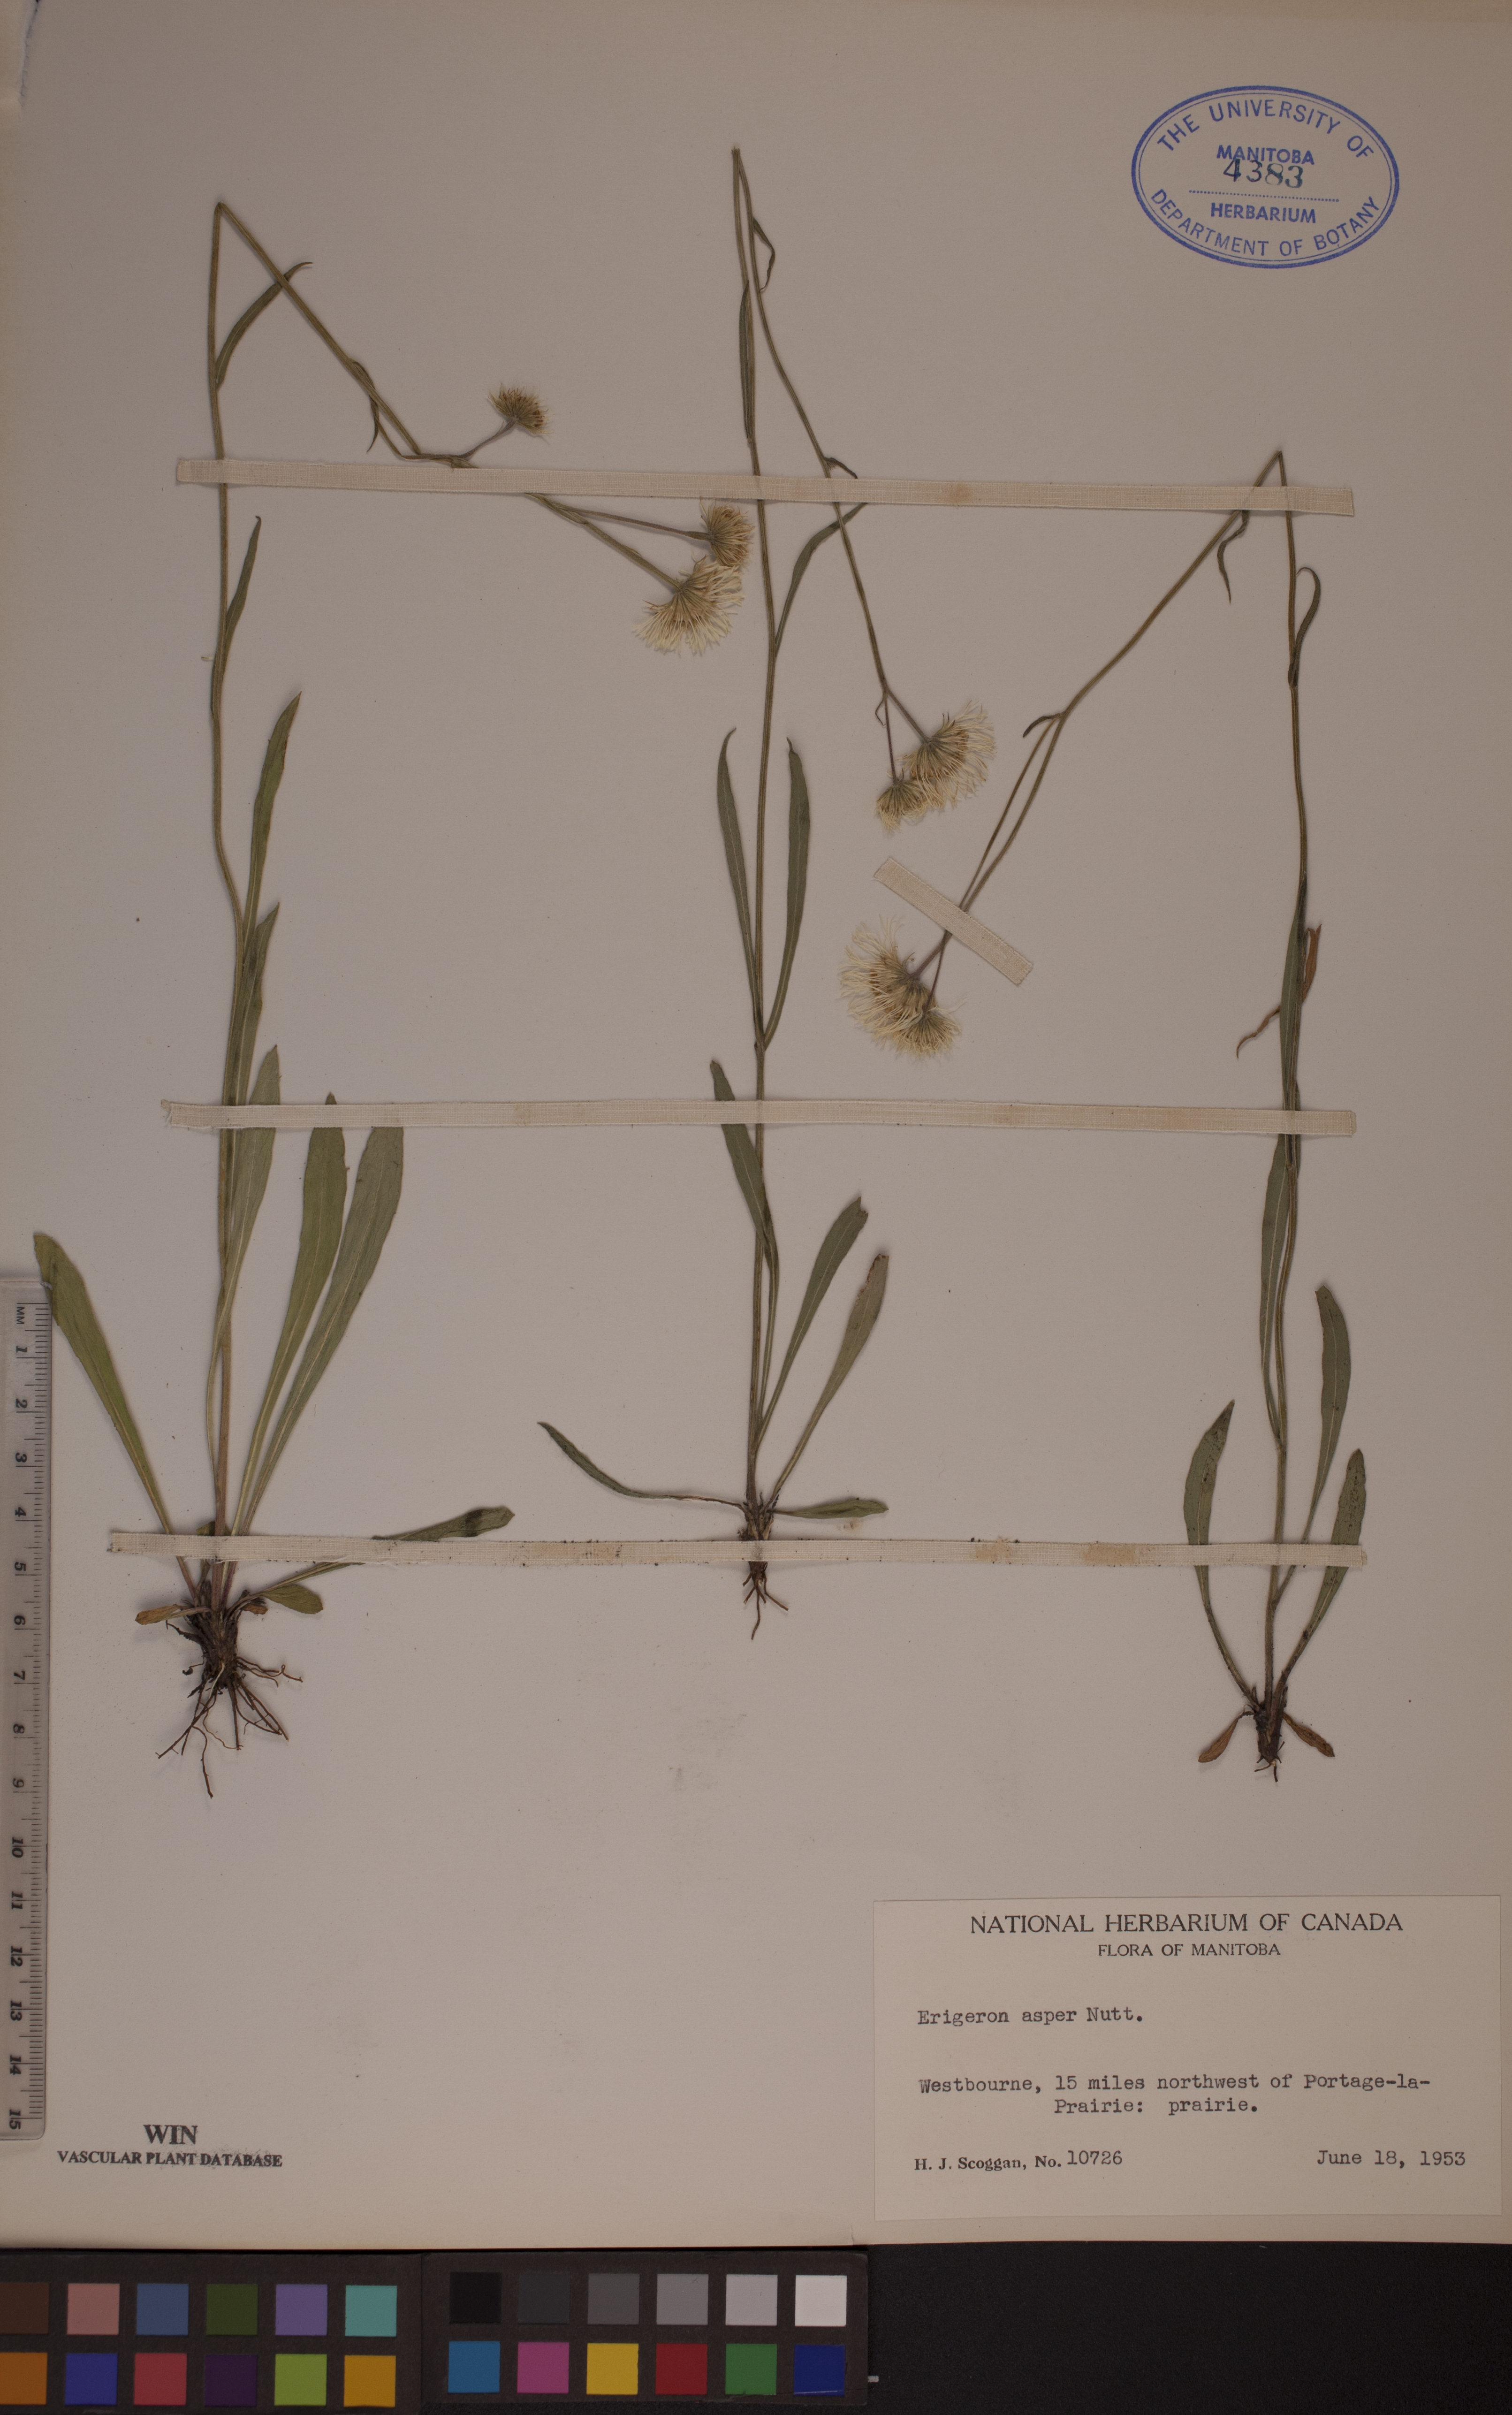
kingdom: Plantae
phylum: Tracheophyta
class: Magnoliopsida
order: Asterales
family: Asteraceae
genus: Erigeron
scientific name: Erigeron glabellus
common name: Smooth fleabane
